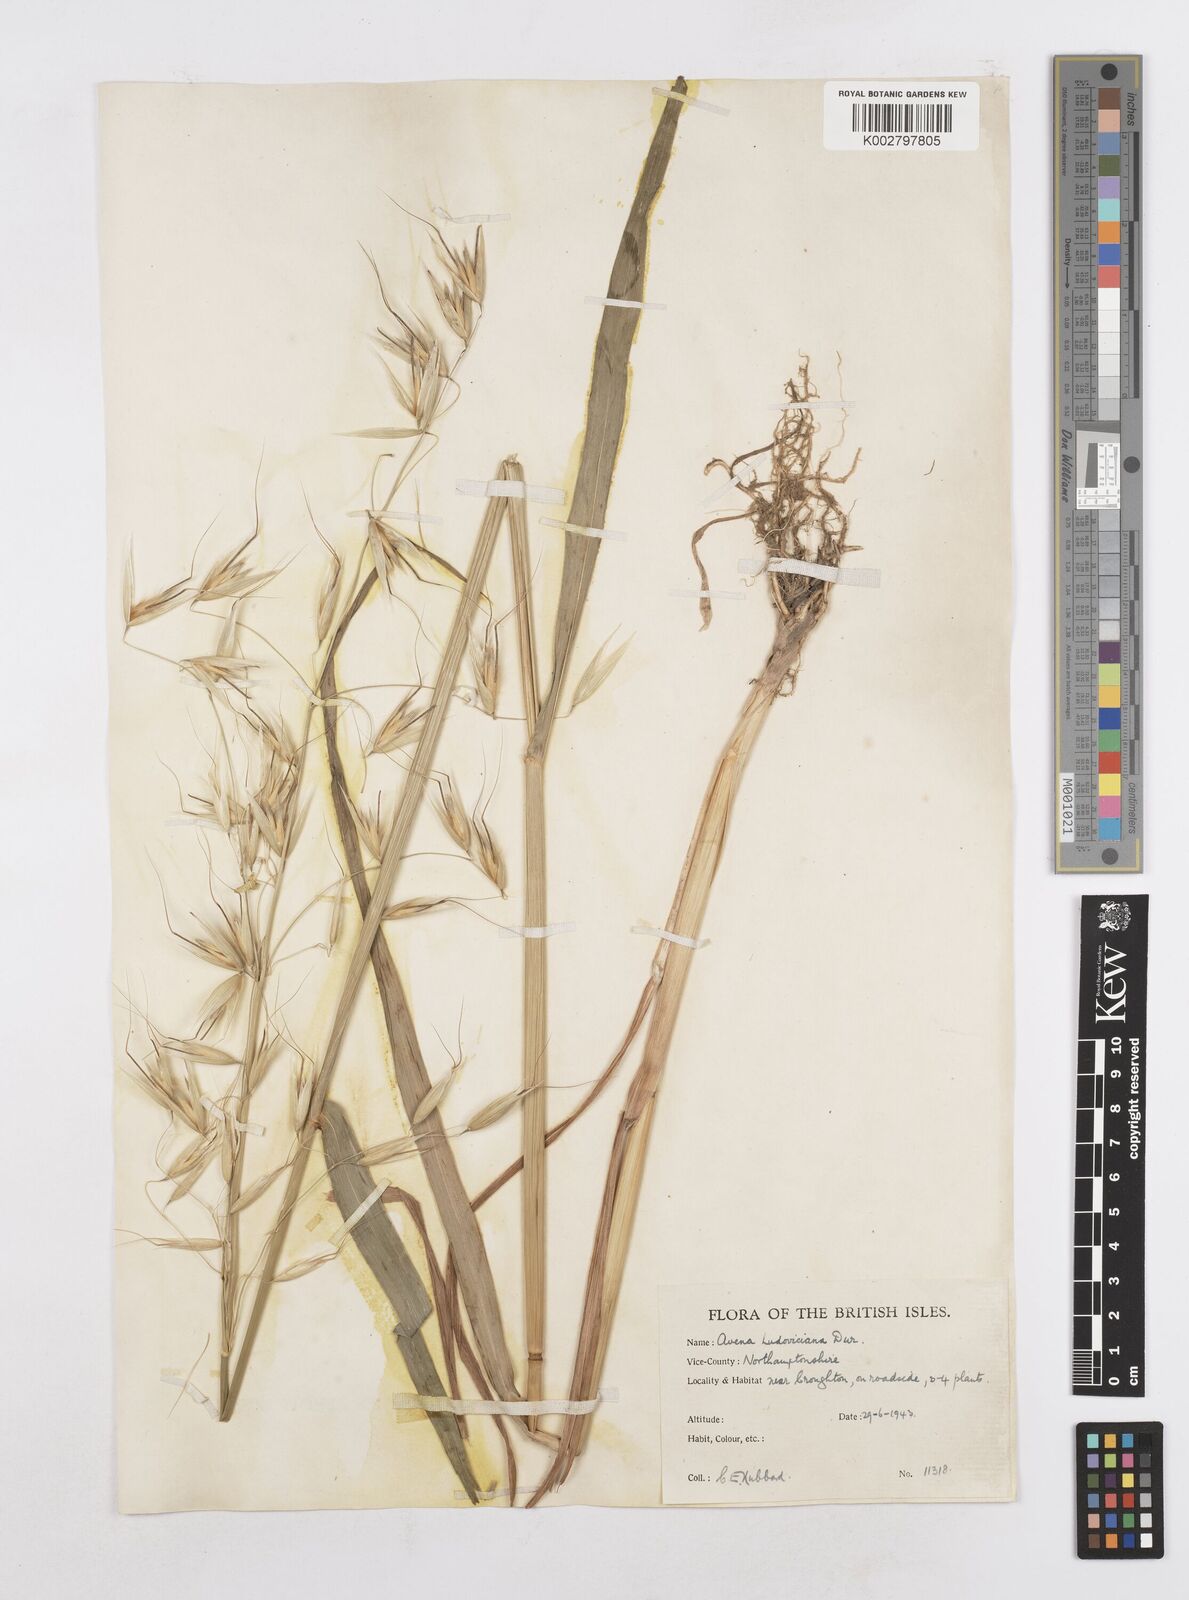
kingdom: Plantae
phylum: Tracheophyta
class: Liliopsida
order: Poales
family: Poaceae
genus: Avena
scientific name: Avena sterilis
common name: Animated oat
